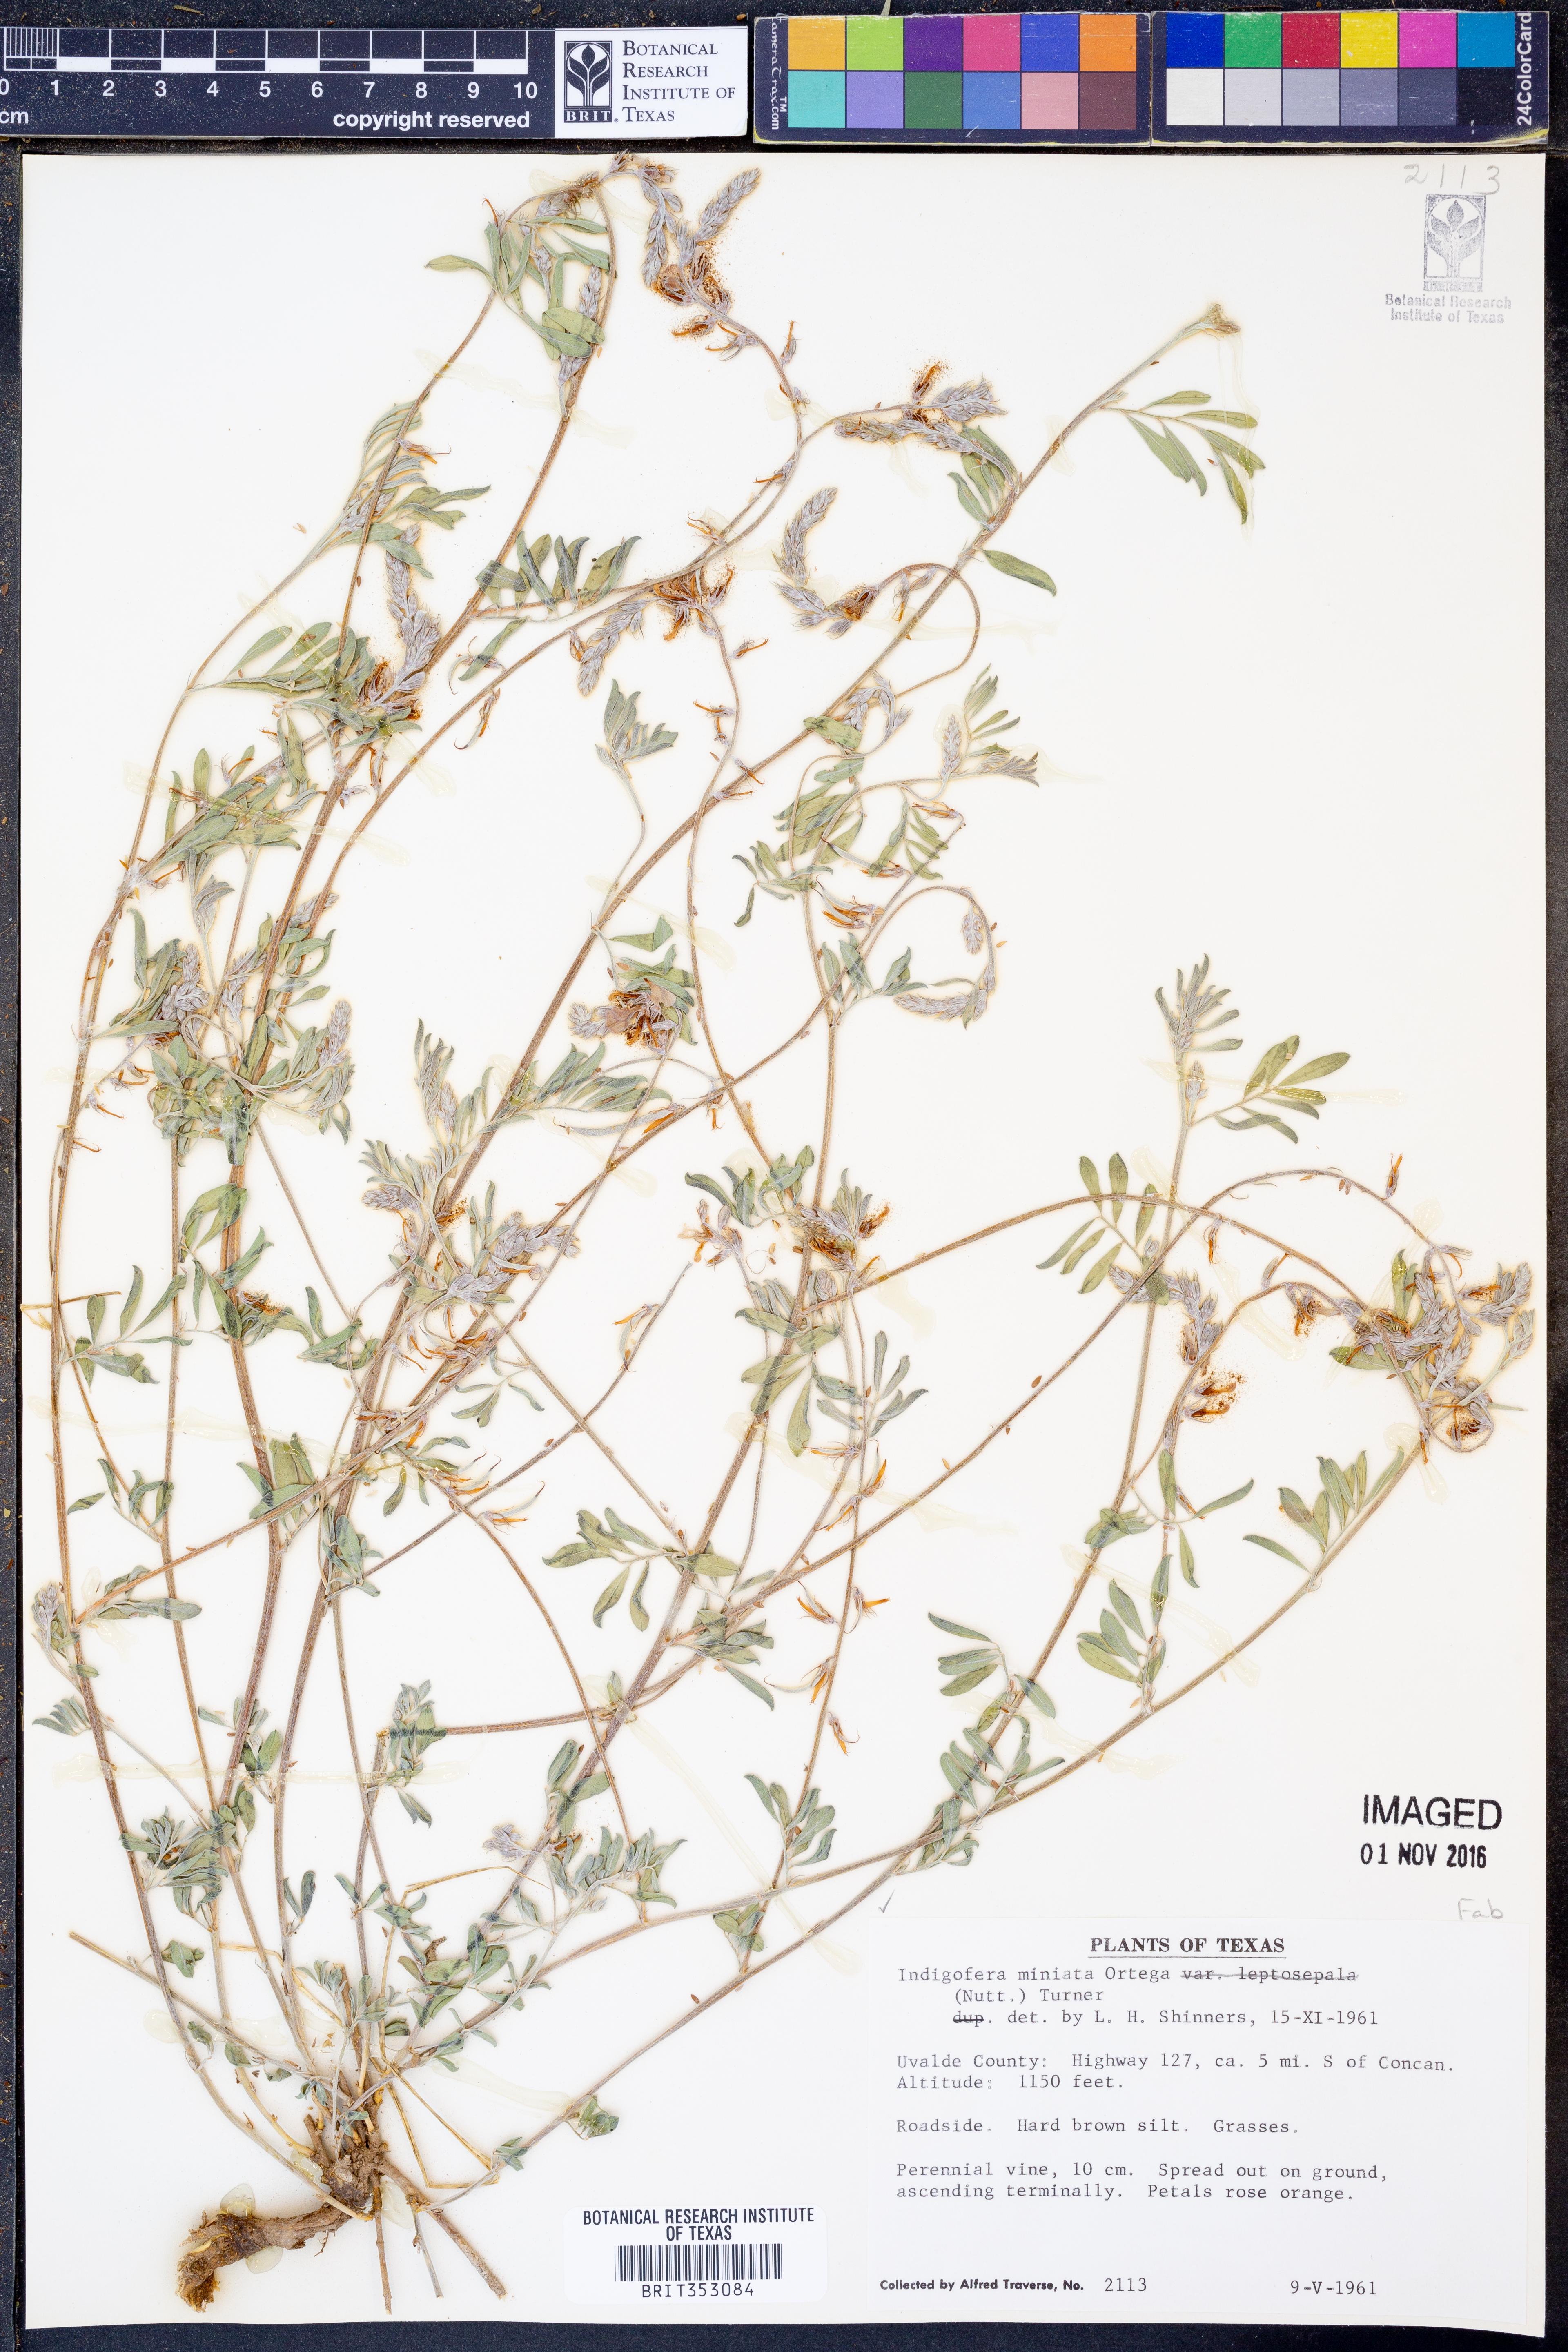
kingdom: Plantae
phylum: Tracheophyta
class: Magnoliopsida
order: Fabales
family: Fabaceae
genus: Indigofera
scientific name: Indigofera miniata
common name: Coast indigo
